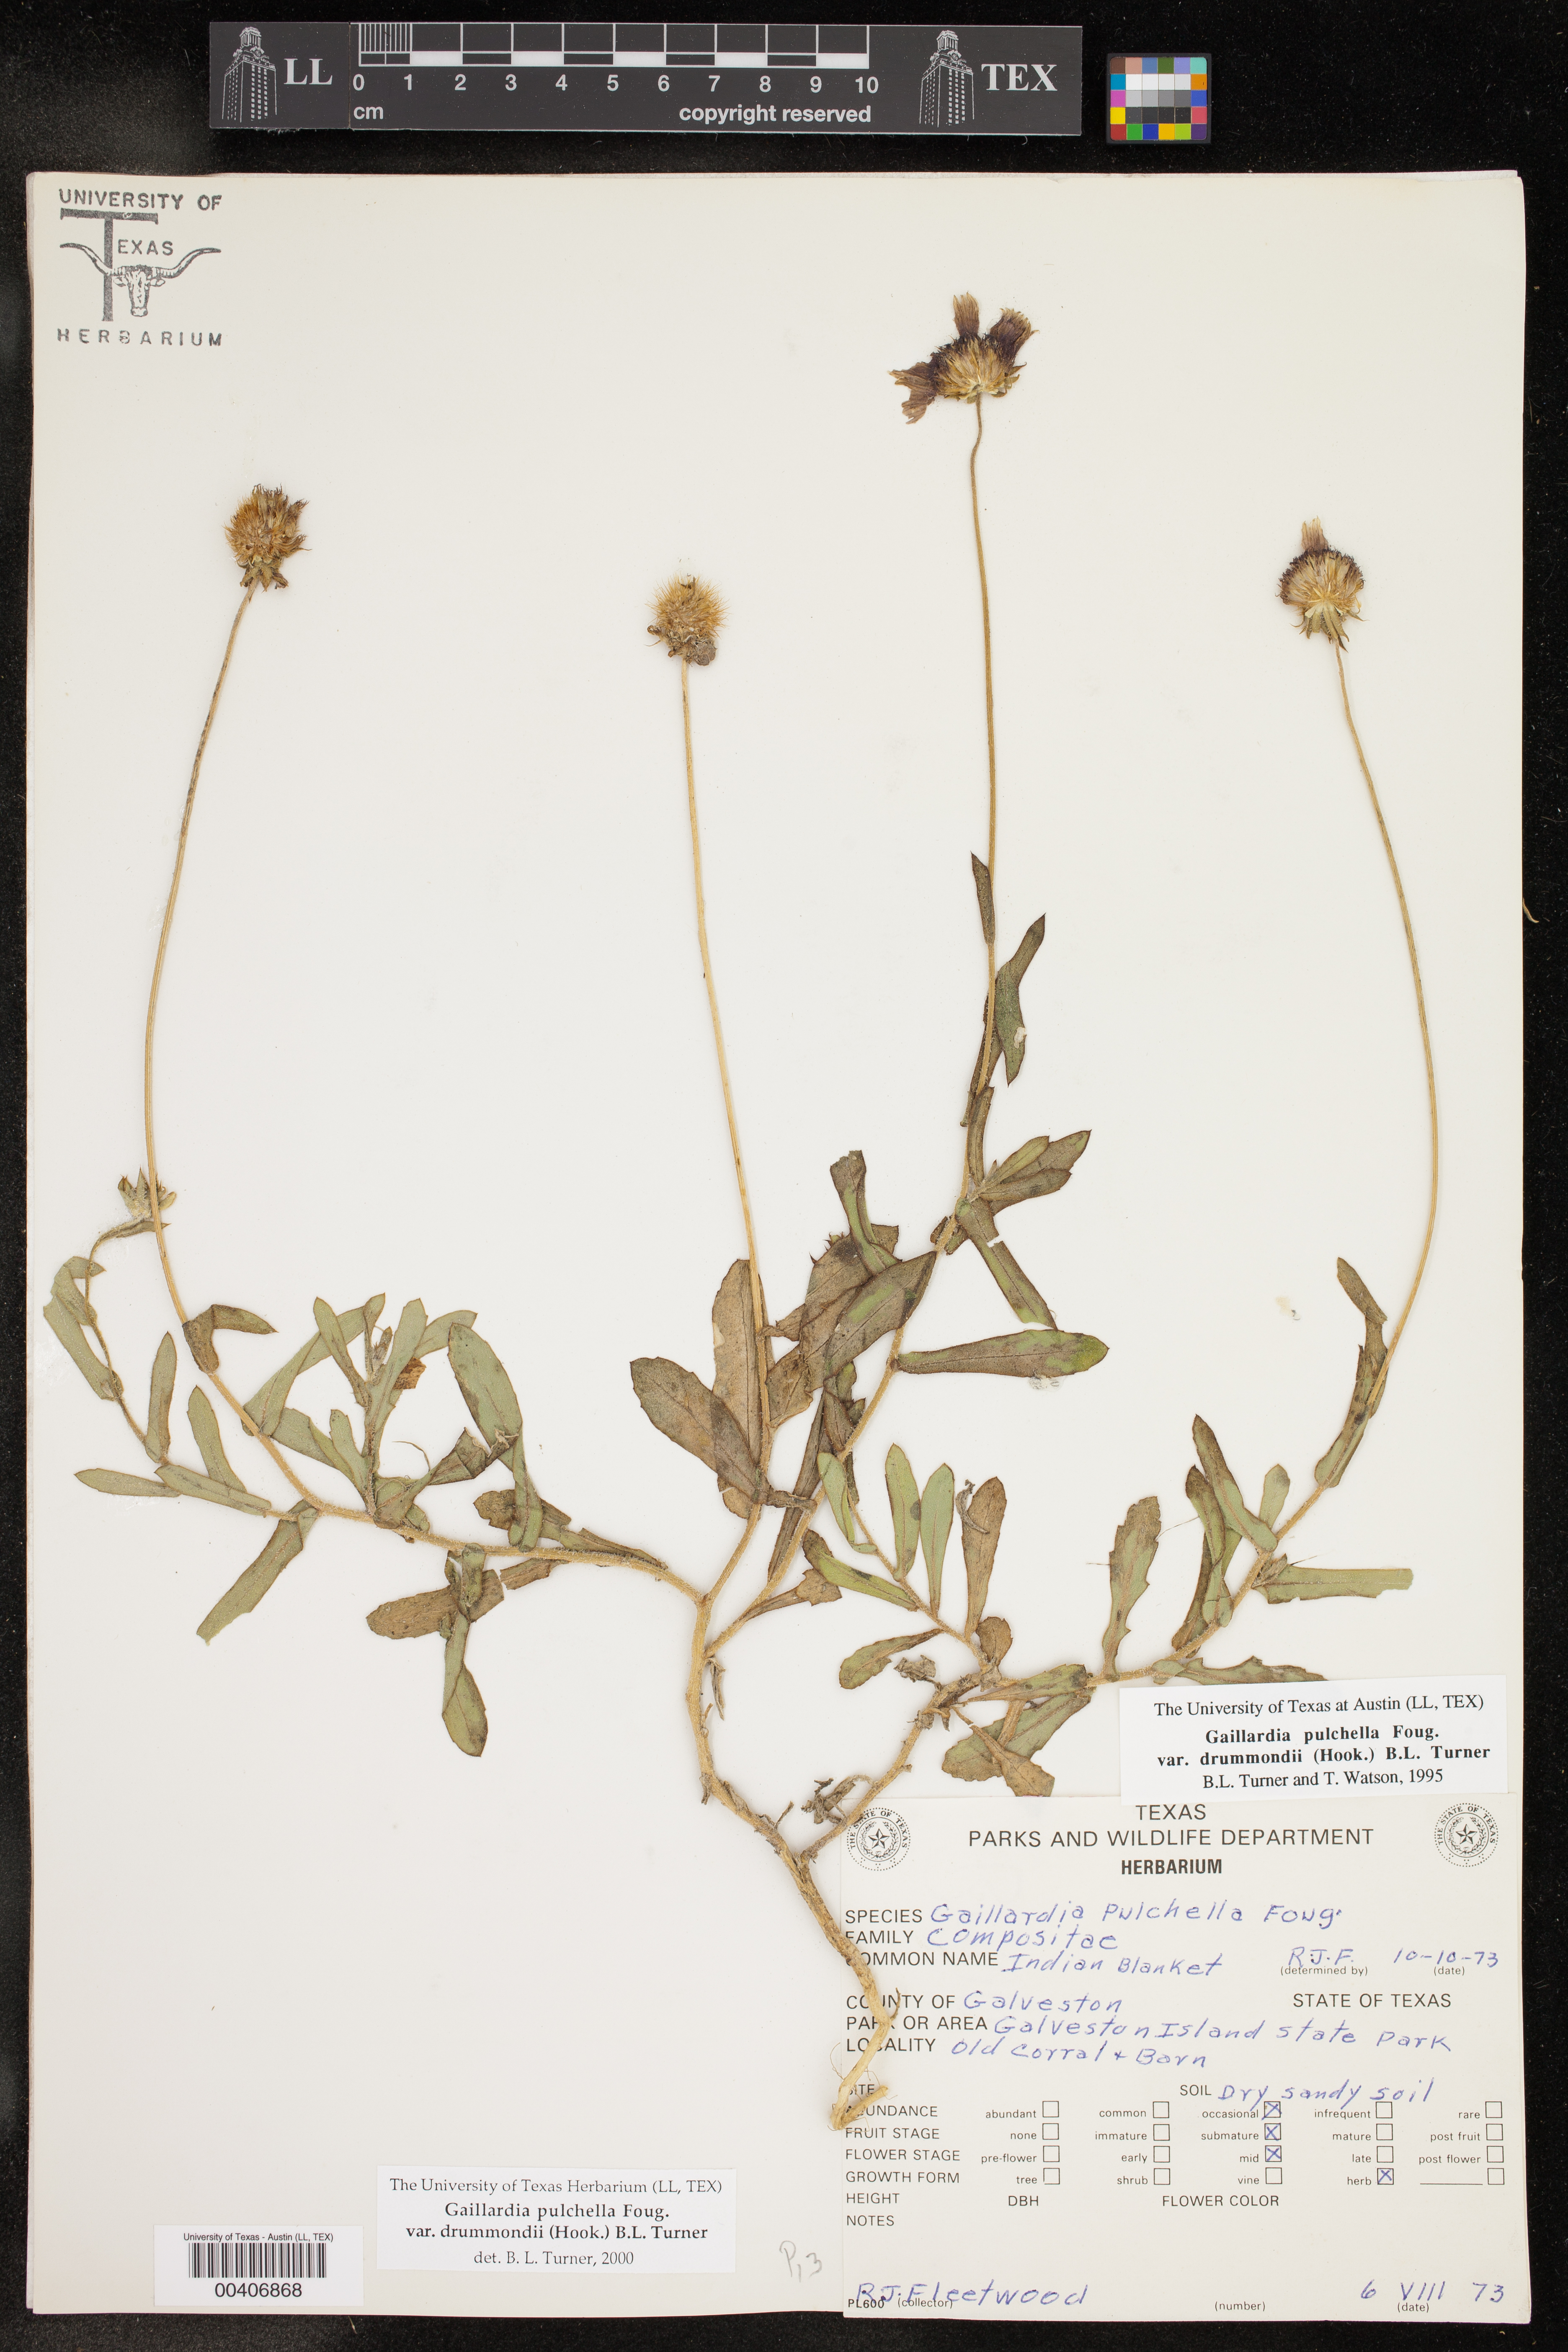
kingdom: Plantae
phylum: Tracheophyta
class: Magnoliopsida
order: Asterales
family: Asteraceae
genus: Gaillardia
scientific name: Gaillardia pulchella
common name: Firewheel
